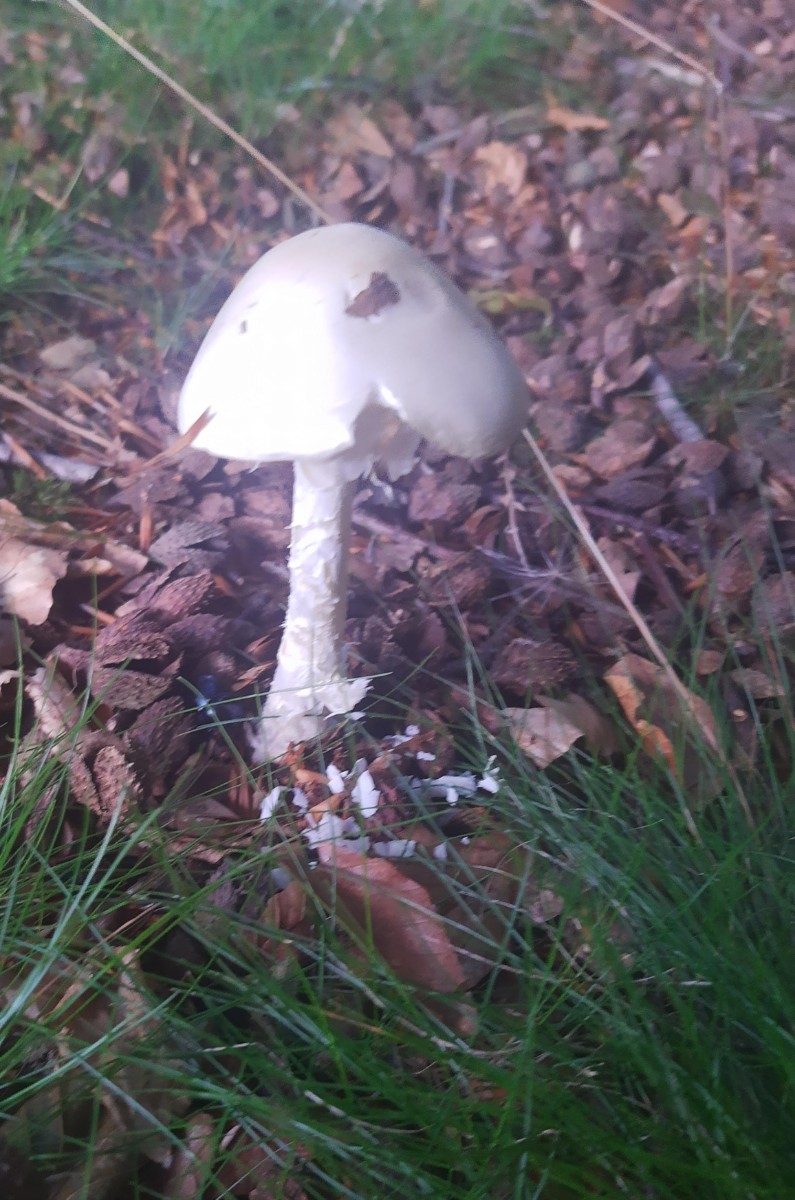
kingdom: Fungi
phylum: Basidiomycota
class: Agaricomycetes
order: Agaricales
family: Amanitaceae
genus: Amanita
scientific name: Amanita virosa
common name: snehvid fluesvamp
